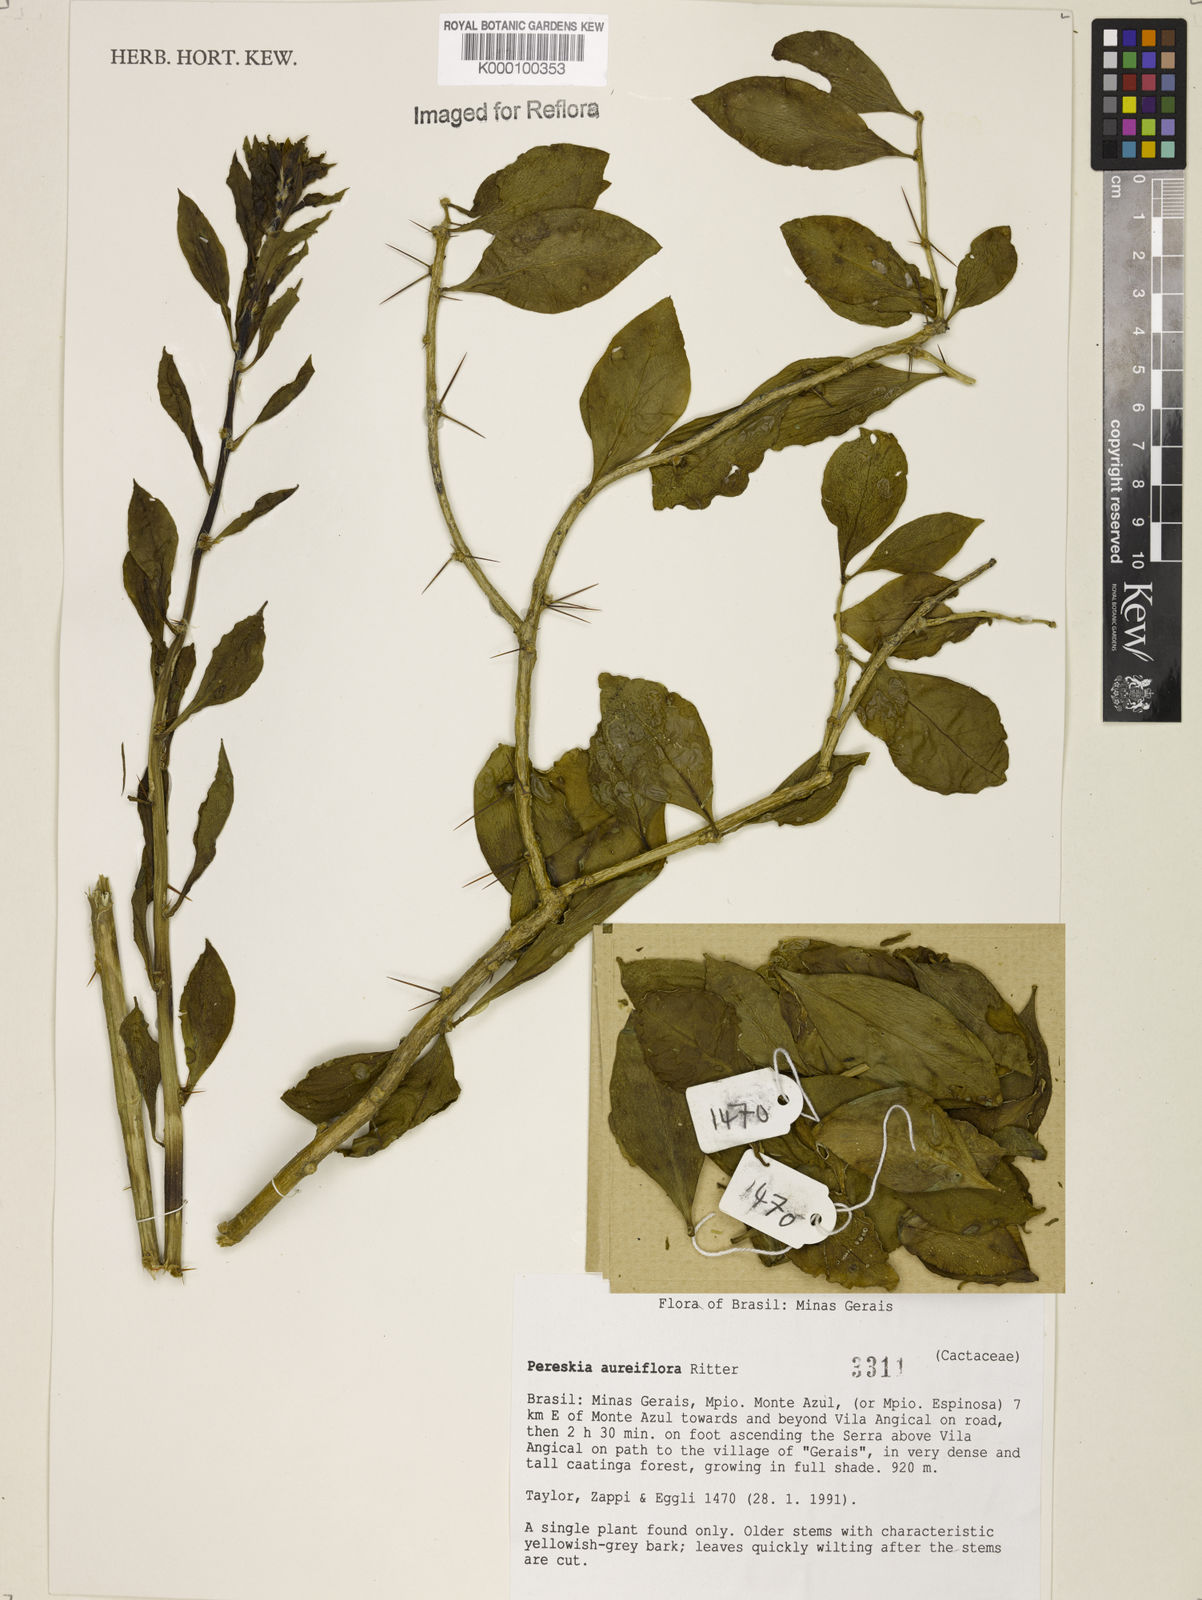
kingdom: Plantae
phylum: Tracheophyta
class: Magnoliopsida
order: Caryophyllales
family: Cactaceae
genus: Leuenbergeria
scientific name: Leuenbergeria aureiflora
